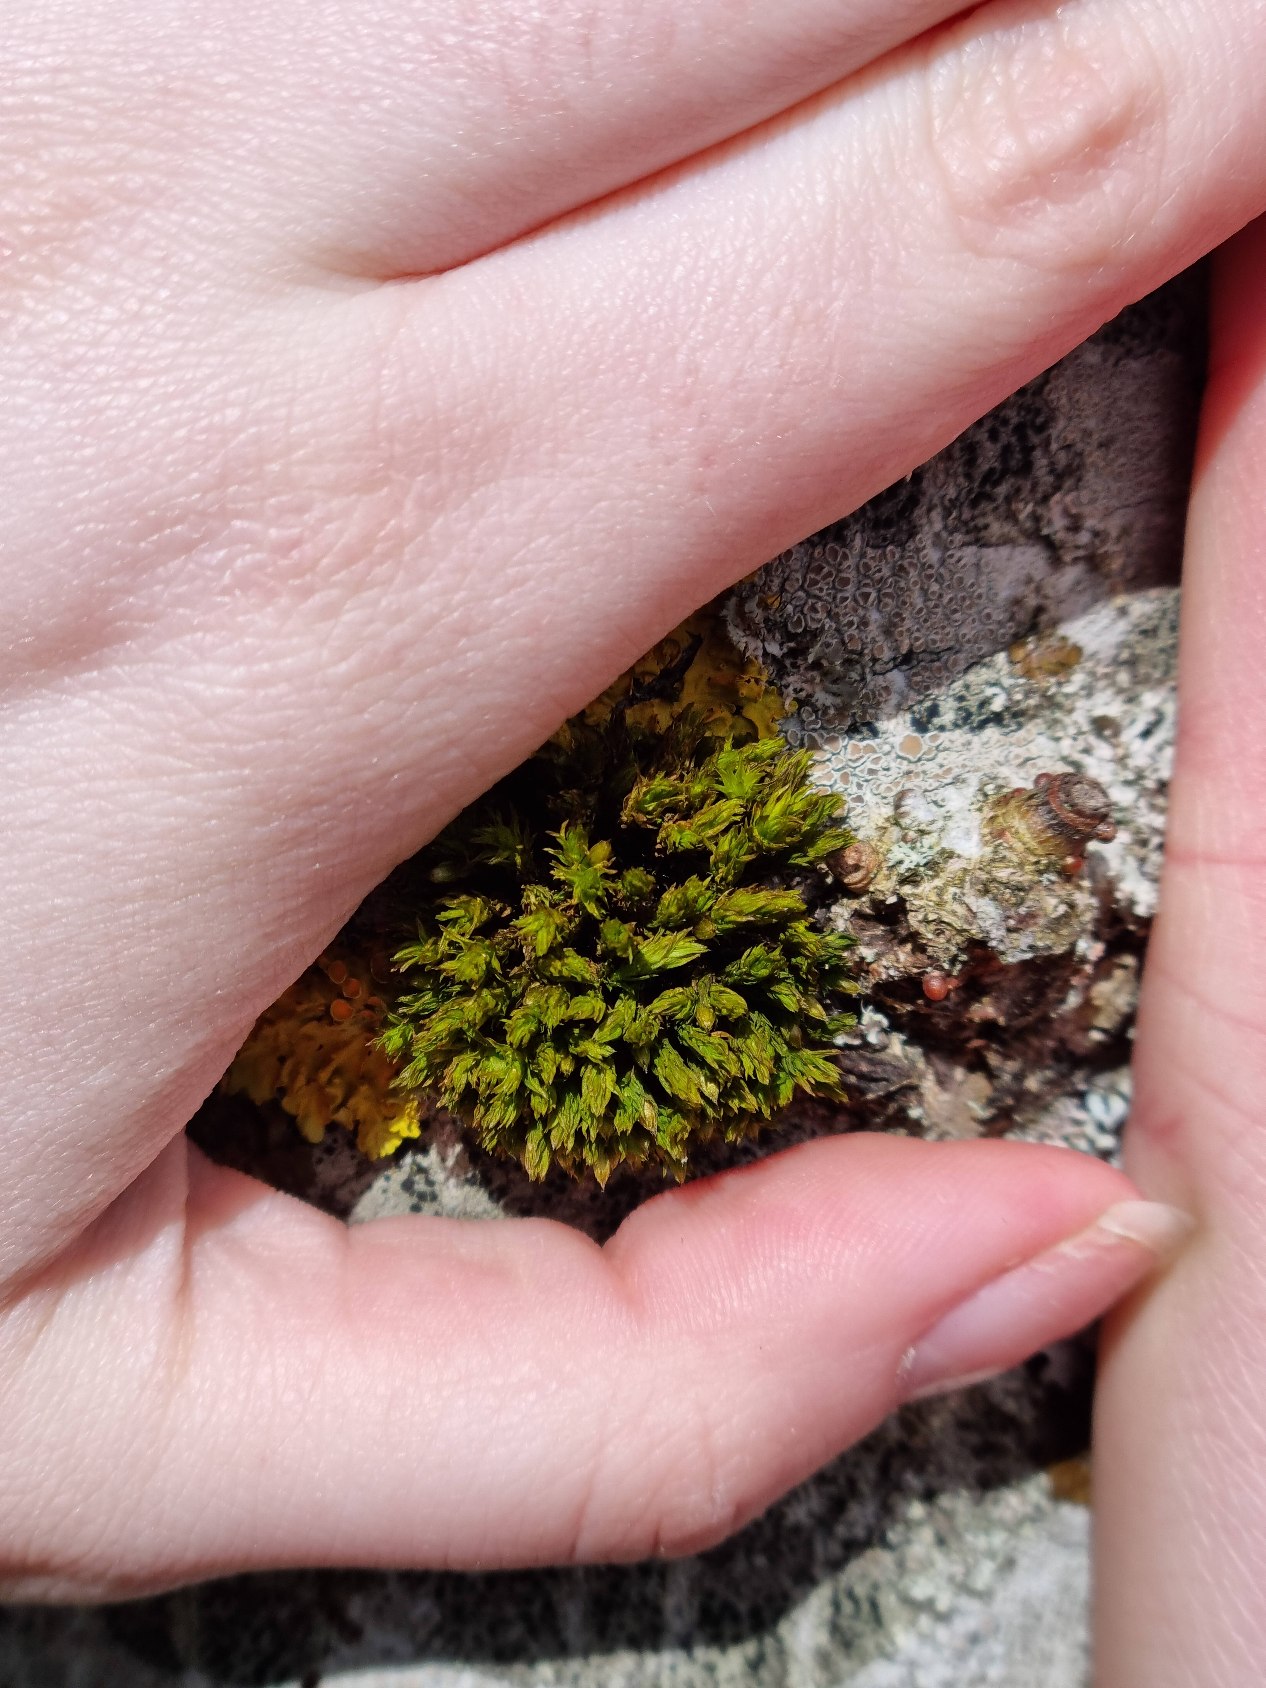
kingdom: Plantae
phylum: Bryophyta
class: Bryopsida
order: Orthotrichales
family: Orthotrichaceae
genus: Lewinskya
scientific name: Lewinskya affinis
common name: Almindelig furehætte
